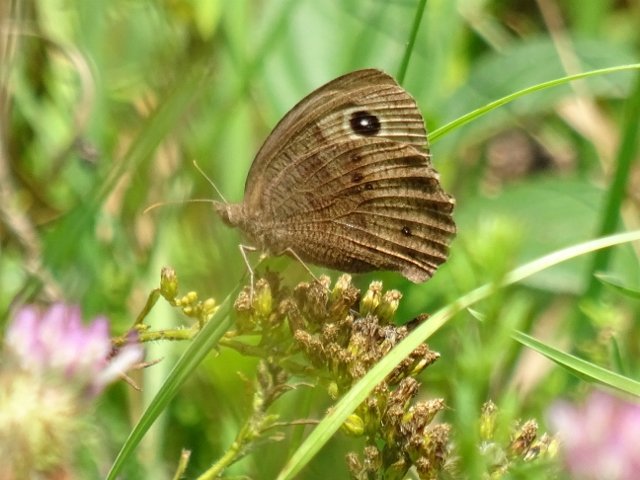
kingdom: Animalia
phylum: Arthropoda
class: Insecta
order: Lepidoptera
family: Nymphalidae
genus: Cercyonis
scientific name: Cercyonis pegala
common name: Common Wood-Nymph
